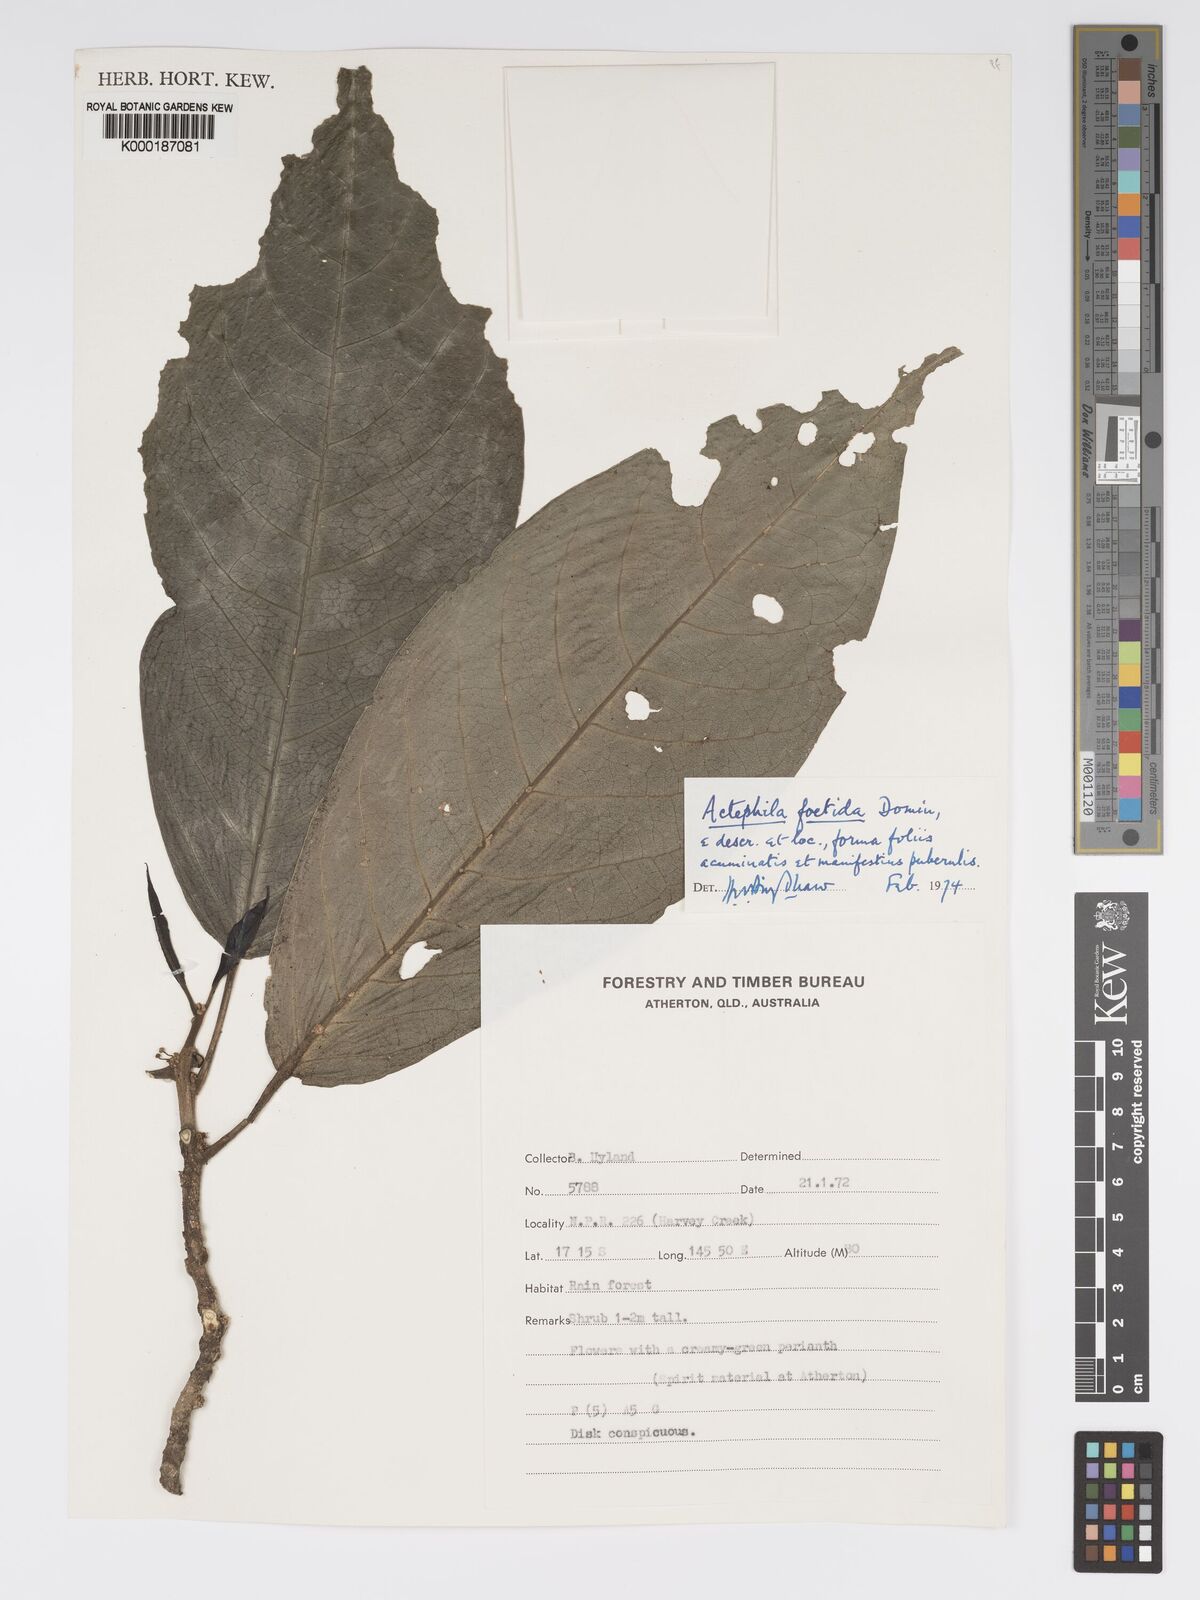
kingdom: Plantae
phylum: Tracheophyta
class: Magnoliopsida
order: Malpighiales
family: Phyllanthaceae
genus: Actephila
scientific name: Actephila foetida
